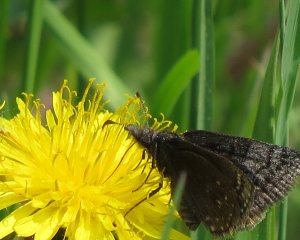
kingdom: Animalia
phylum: Arthropoda
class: Insecta
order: Lepidoptera
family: Hesperiidae
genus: Erynnis
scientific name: Erynnis icelus
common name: Dreamy Duskywing
